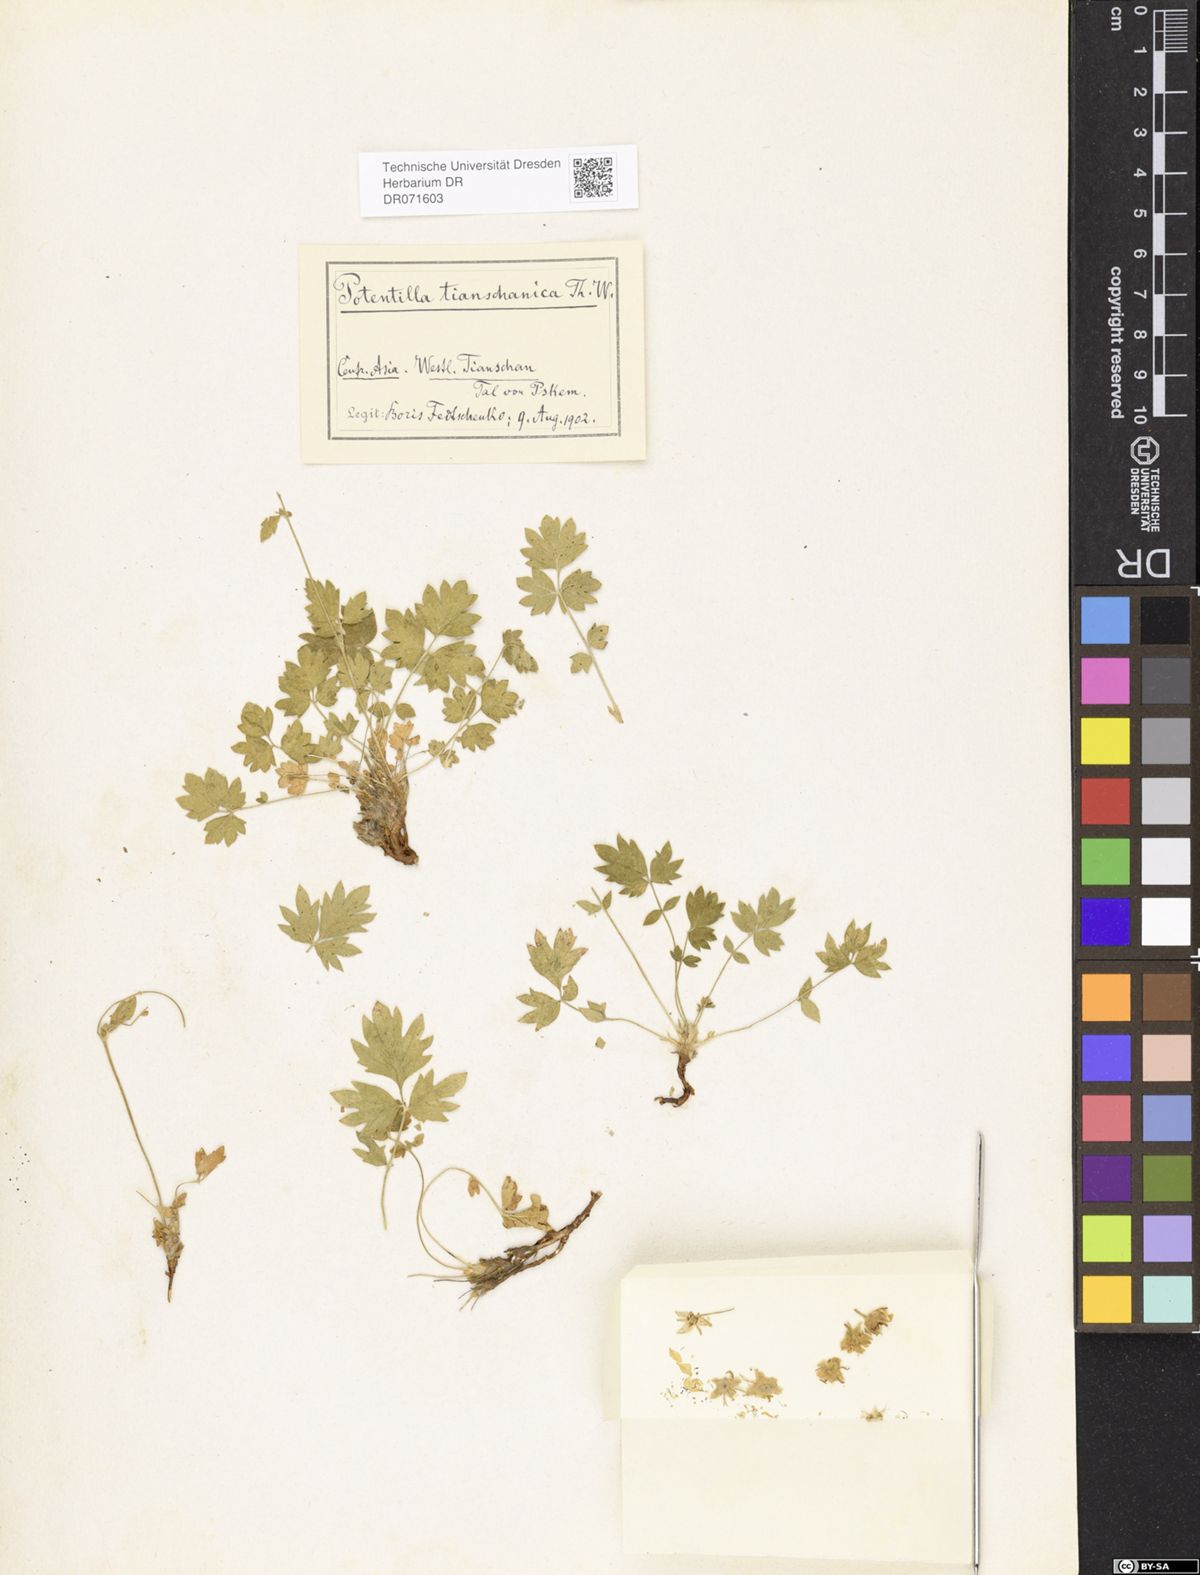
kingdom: Plantae
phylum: Tracheophyta
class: Magnoliopsida
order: Rosales
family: Rosaceae
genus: Potentilla
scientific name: Potentilla tianschanica
